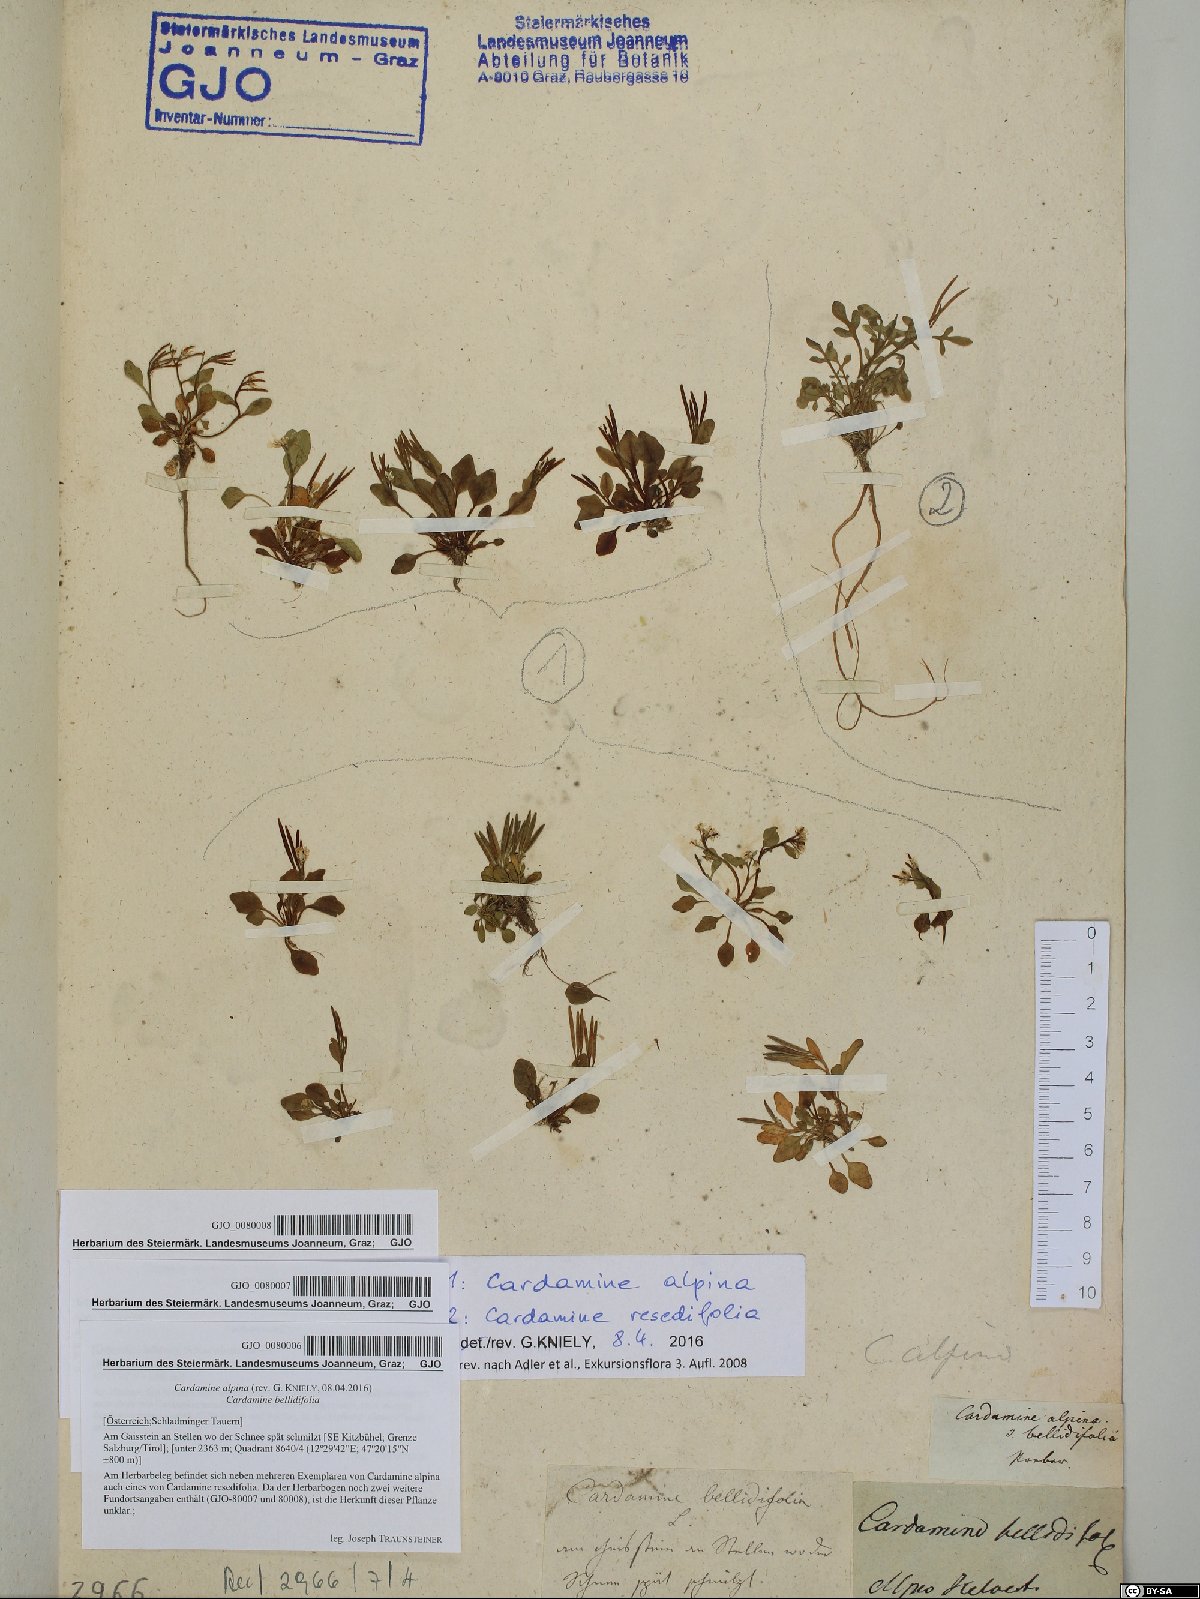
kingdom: Plantae
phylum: Tracheophyta
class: Magnoliopsida
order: Brassicales
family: Brassicaceae
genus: Cardamine
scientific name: Cardamine bellidifolia
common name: Alpine bittercress
